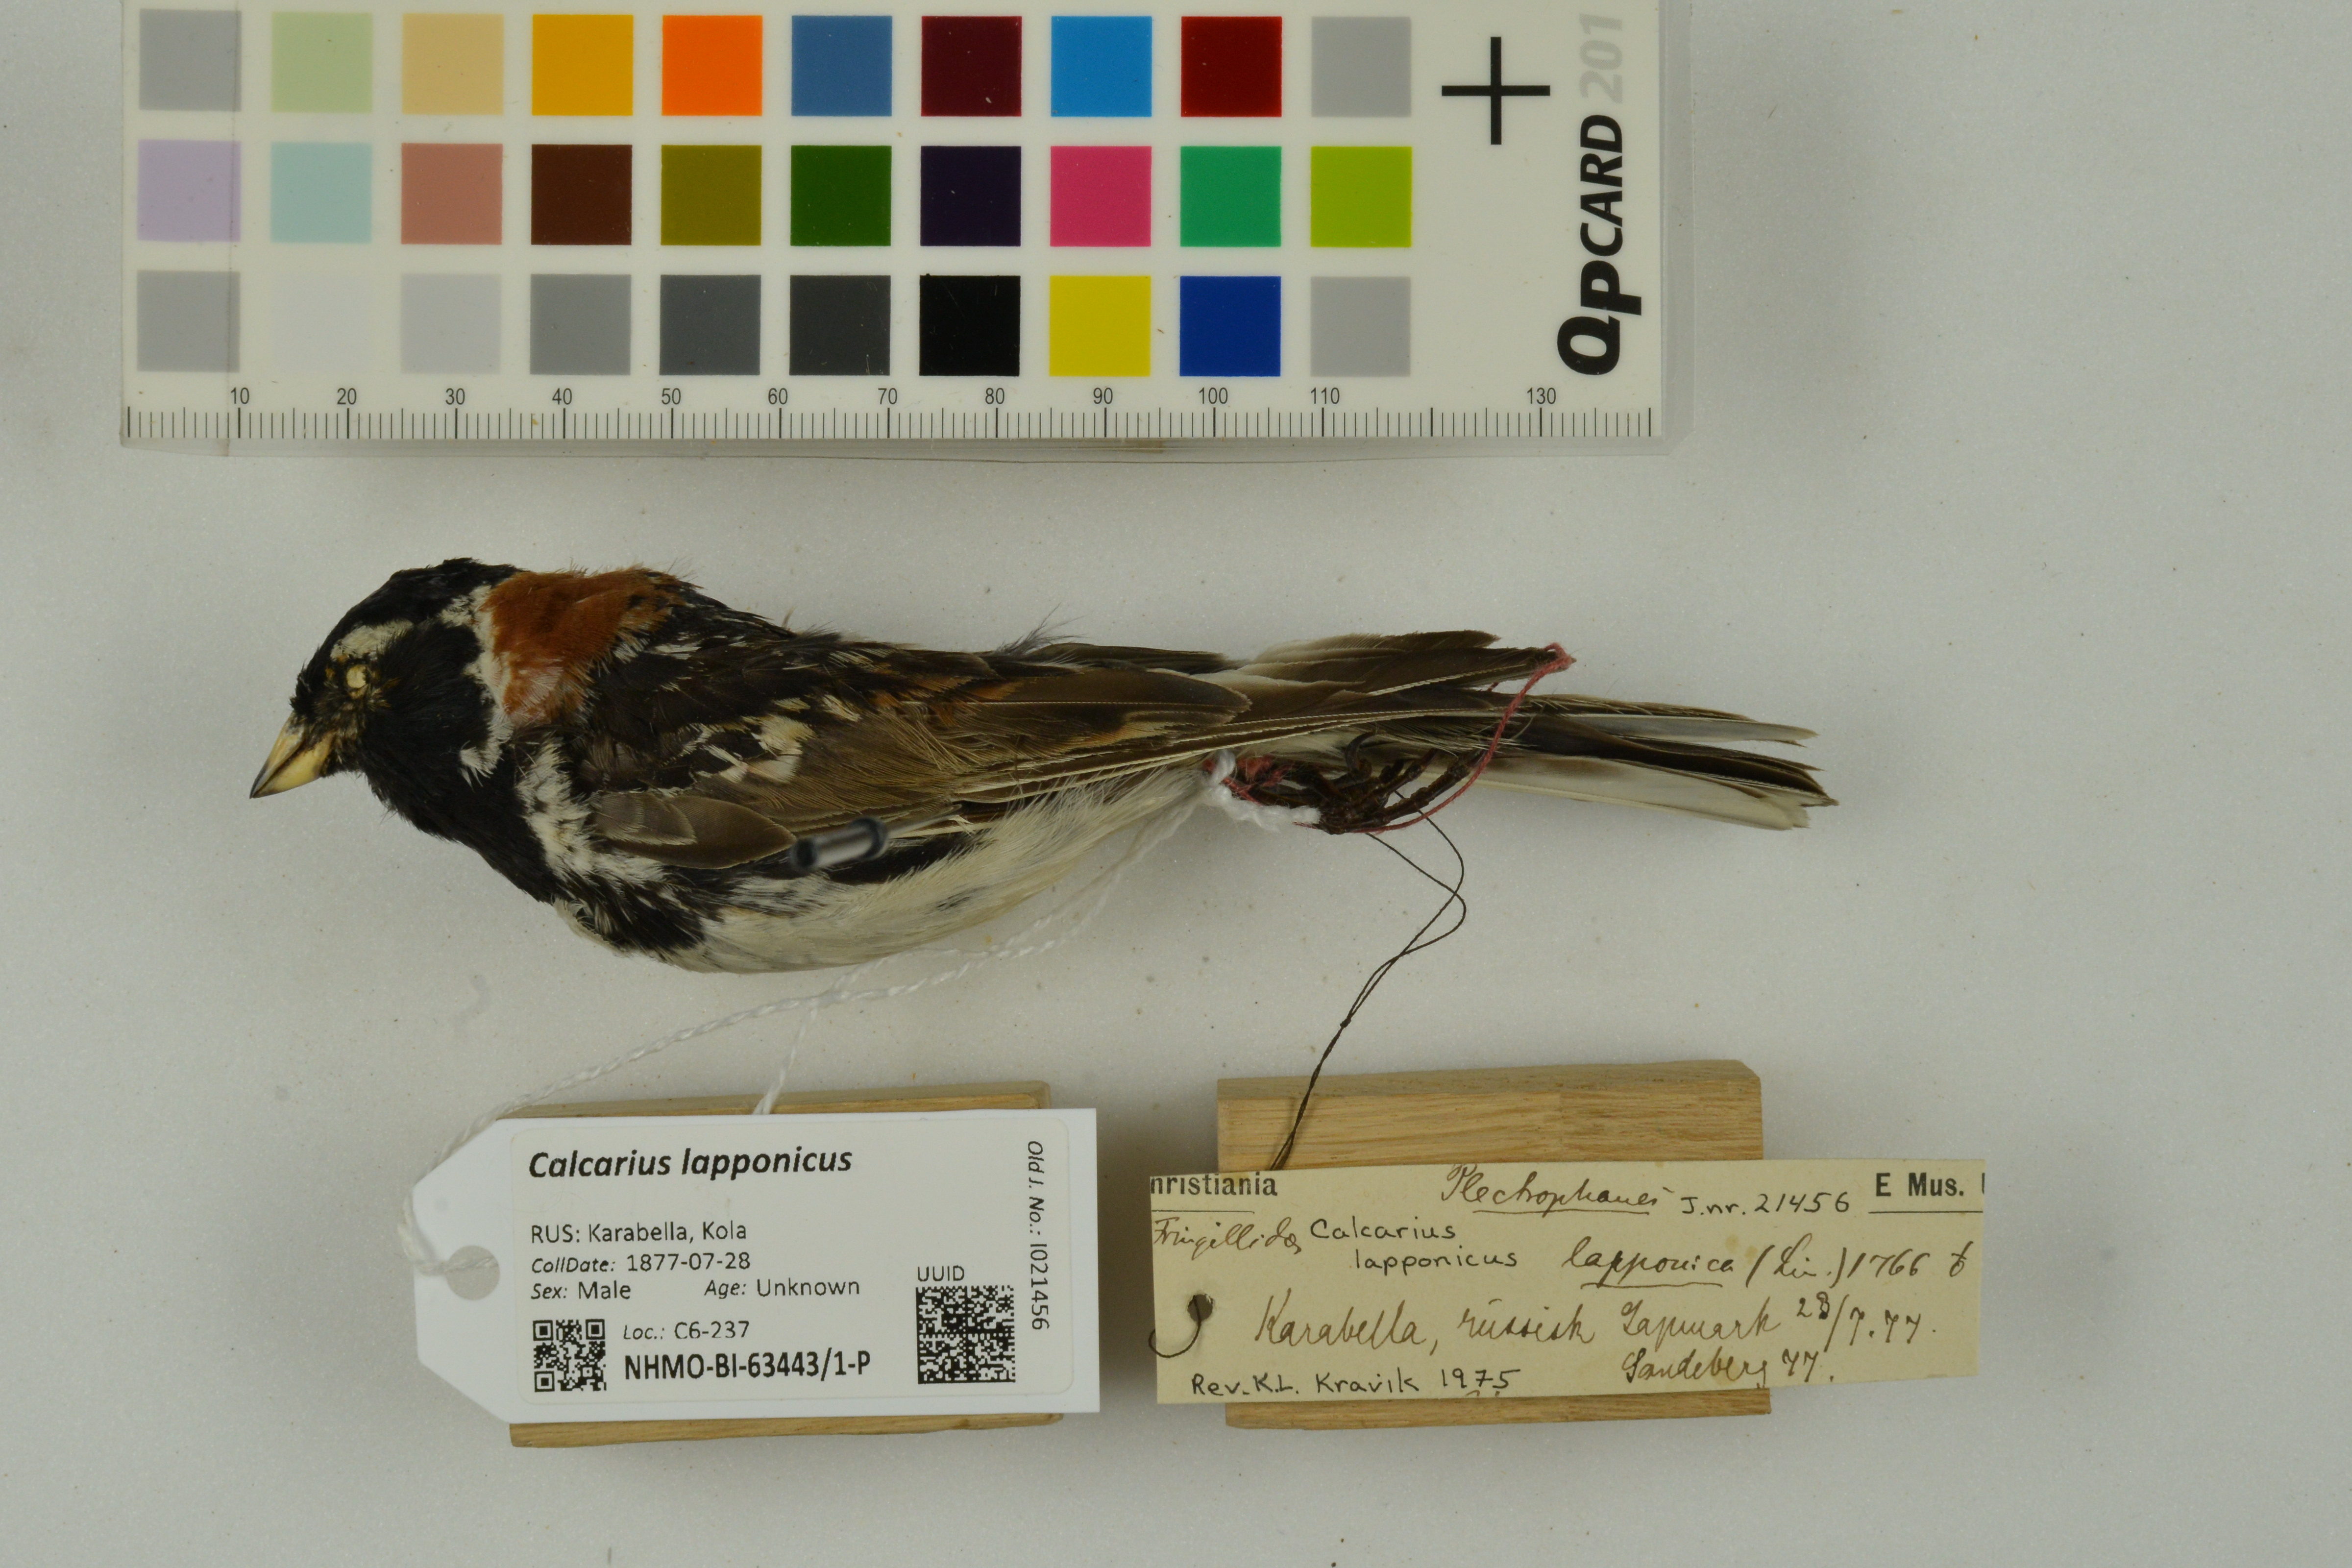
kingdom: Animalia
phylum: Chordata
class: Aves
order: Passeriformes
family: Calcariidae
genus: Calcarius
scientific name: Calcarius lapponicus
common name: Lapland longspur
